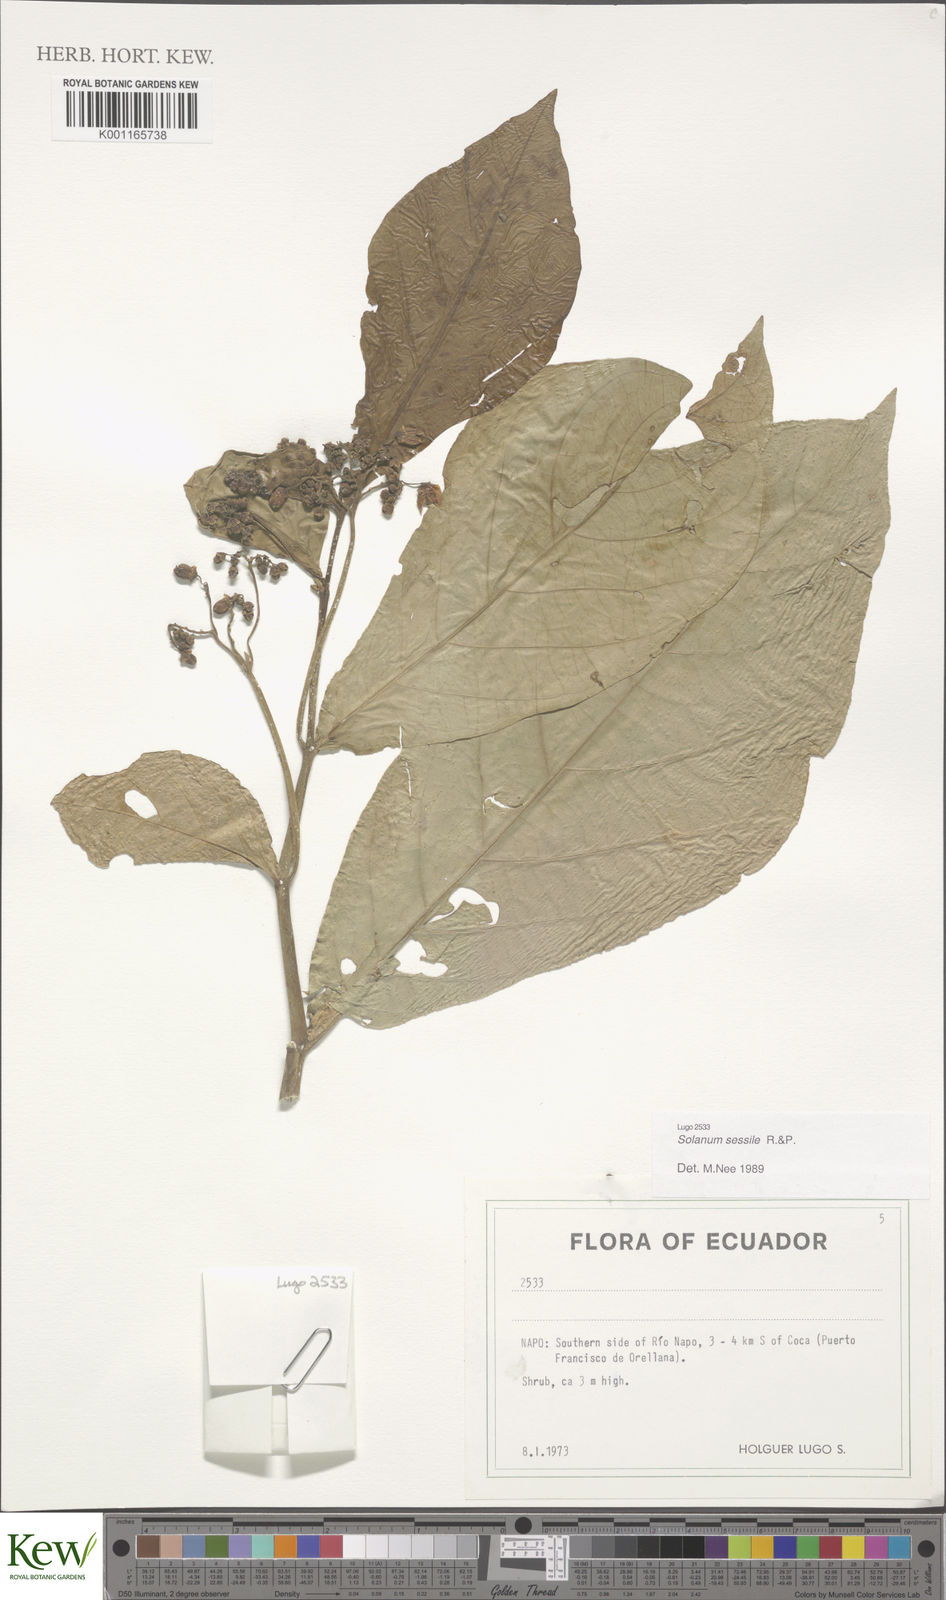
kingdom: Plantae
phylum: Tracheophyta
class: Magnoliopsida
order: Solanales
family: Solanaceae
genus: Solanum
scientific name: Solanum sessile
